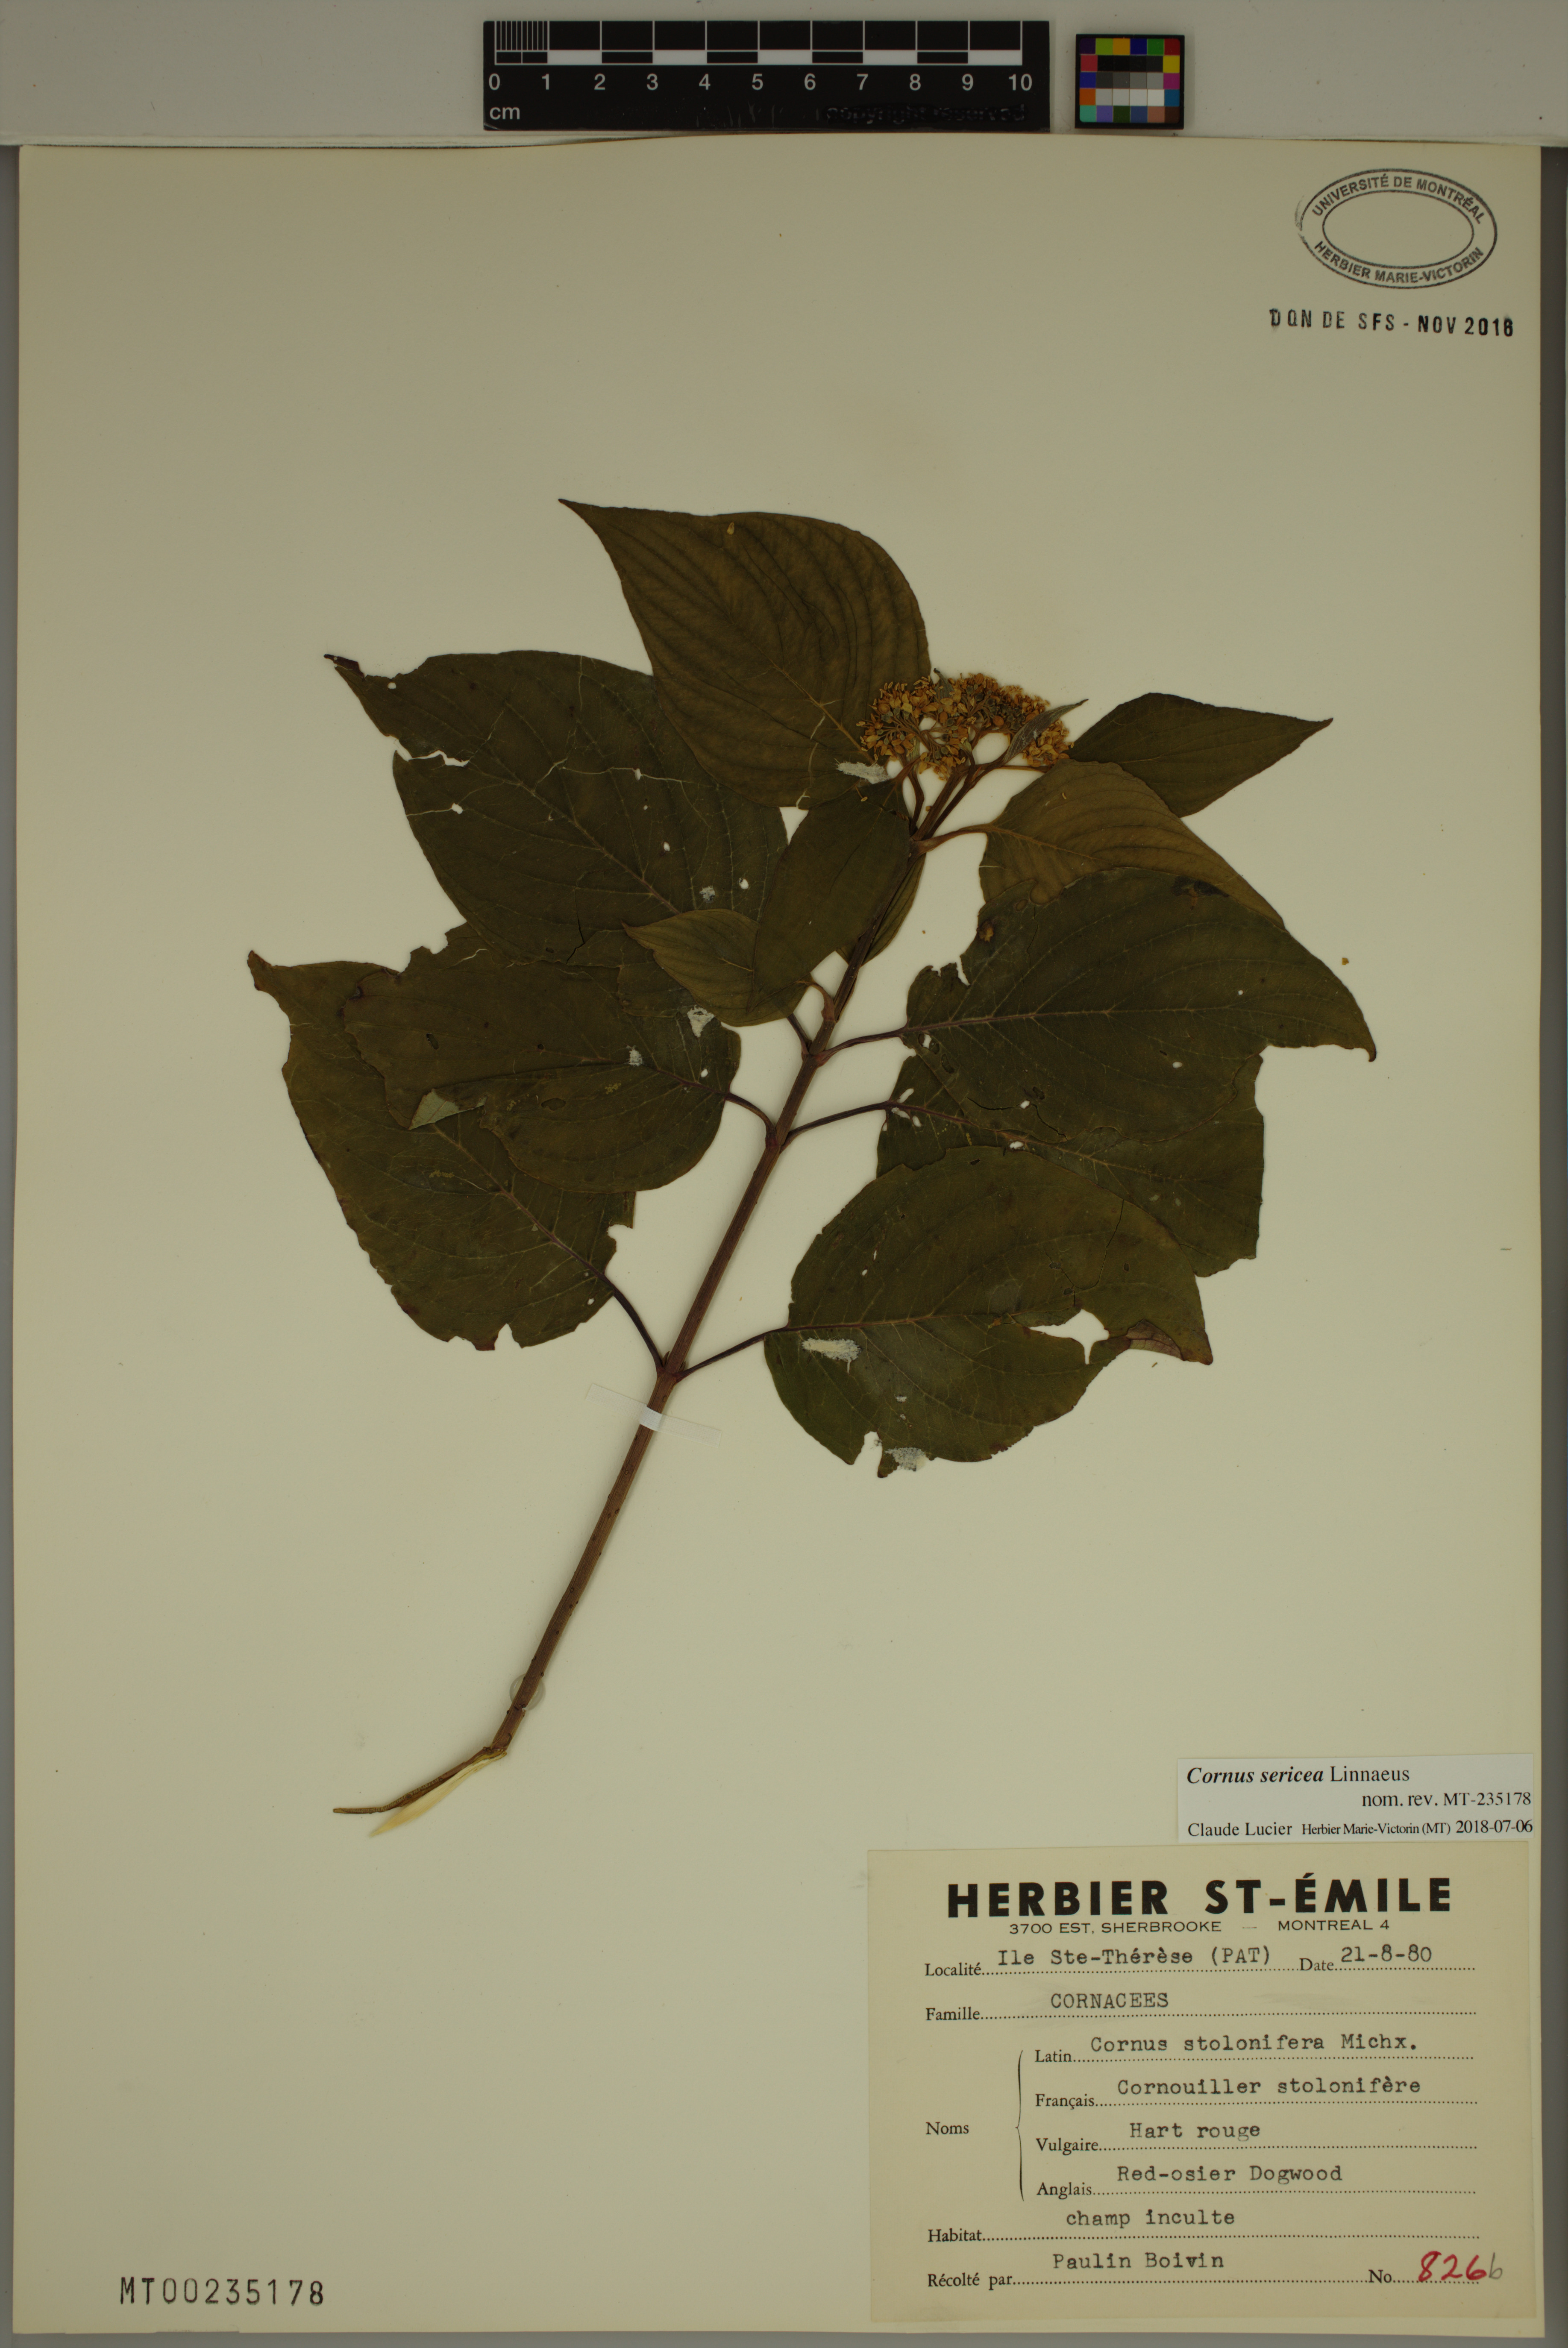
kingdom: Plantae
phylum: Tracheophyta
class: Magnoliopsida
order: Cornales
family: Cornaceae
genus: Cornus
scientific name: Cornus sericea
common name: Red-osier dogwood
